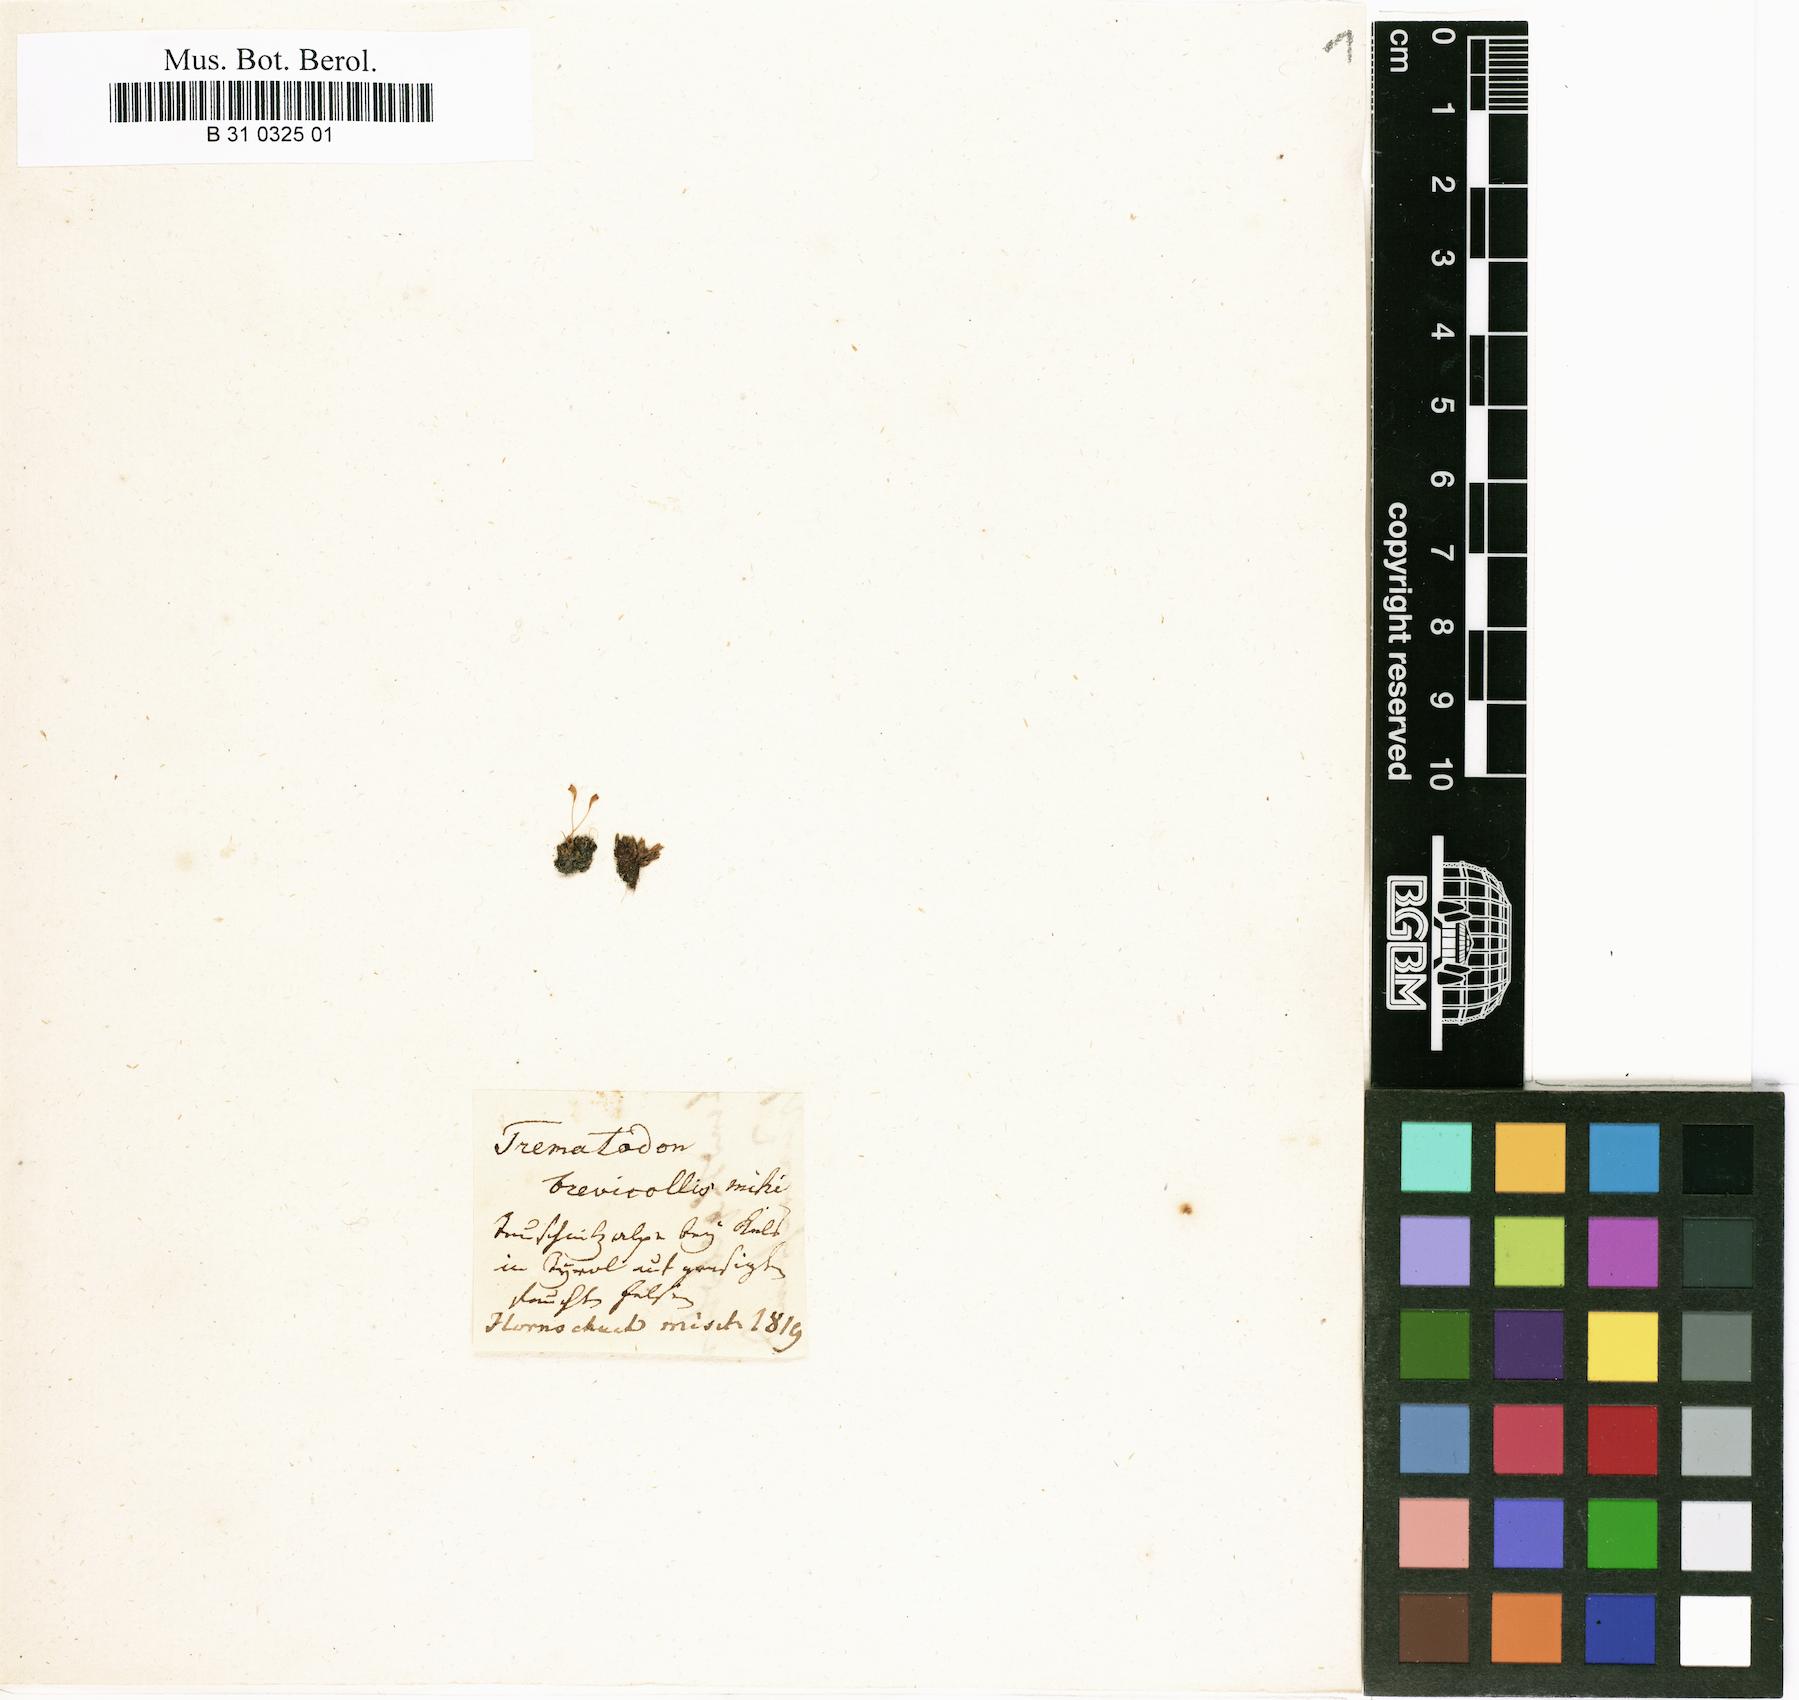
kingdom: Plantae
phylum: Bryophyta
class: Bryopsida
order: Dicranales
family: Bruchiaceae
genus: Trematodon
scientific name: Trematodon brevicollis
